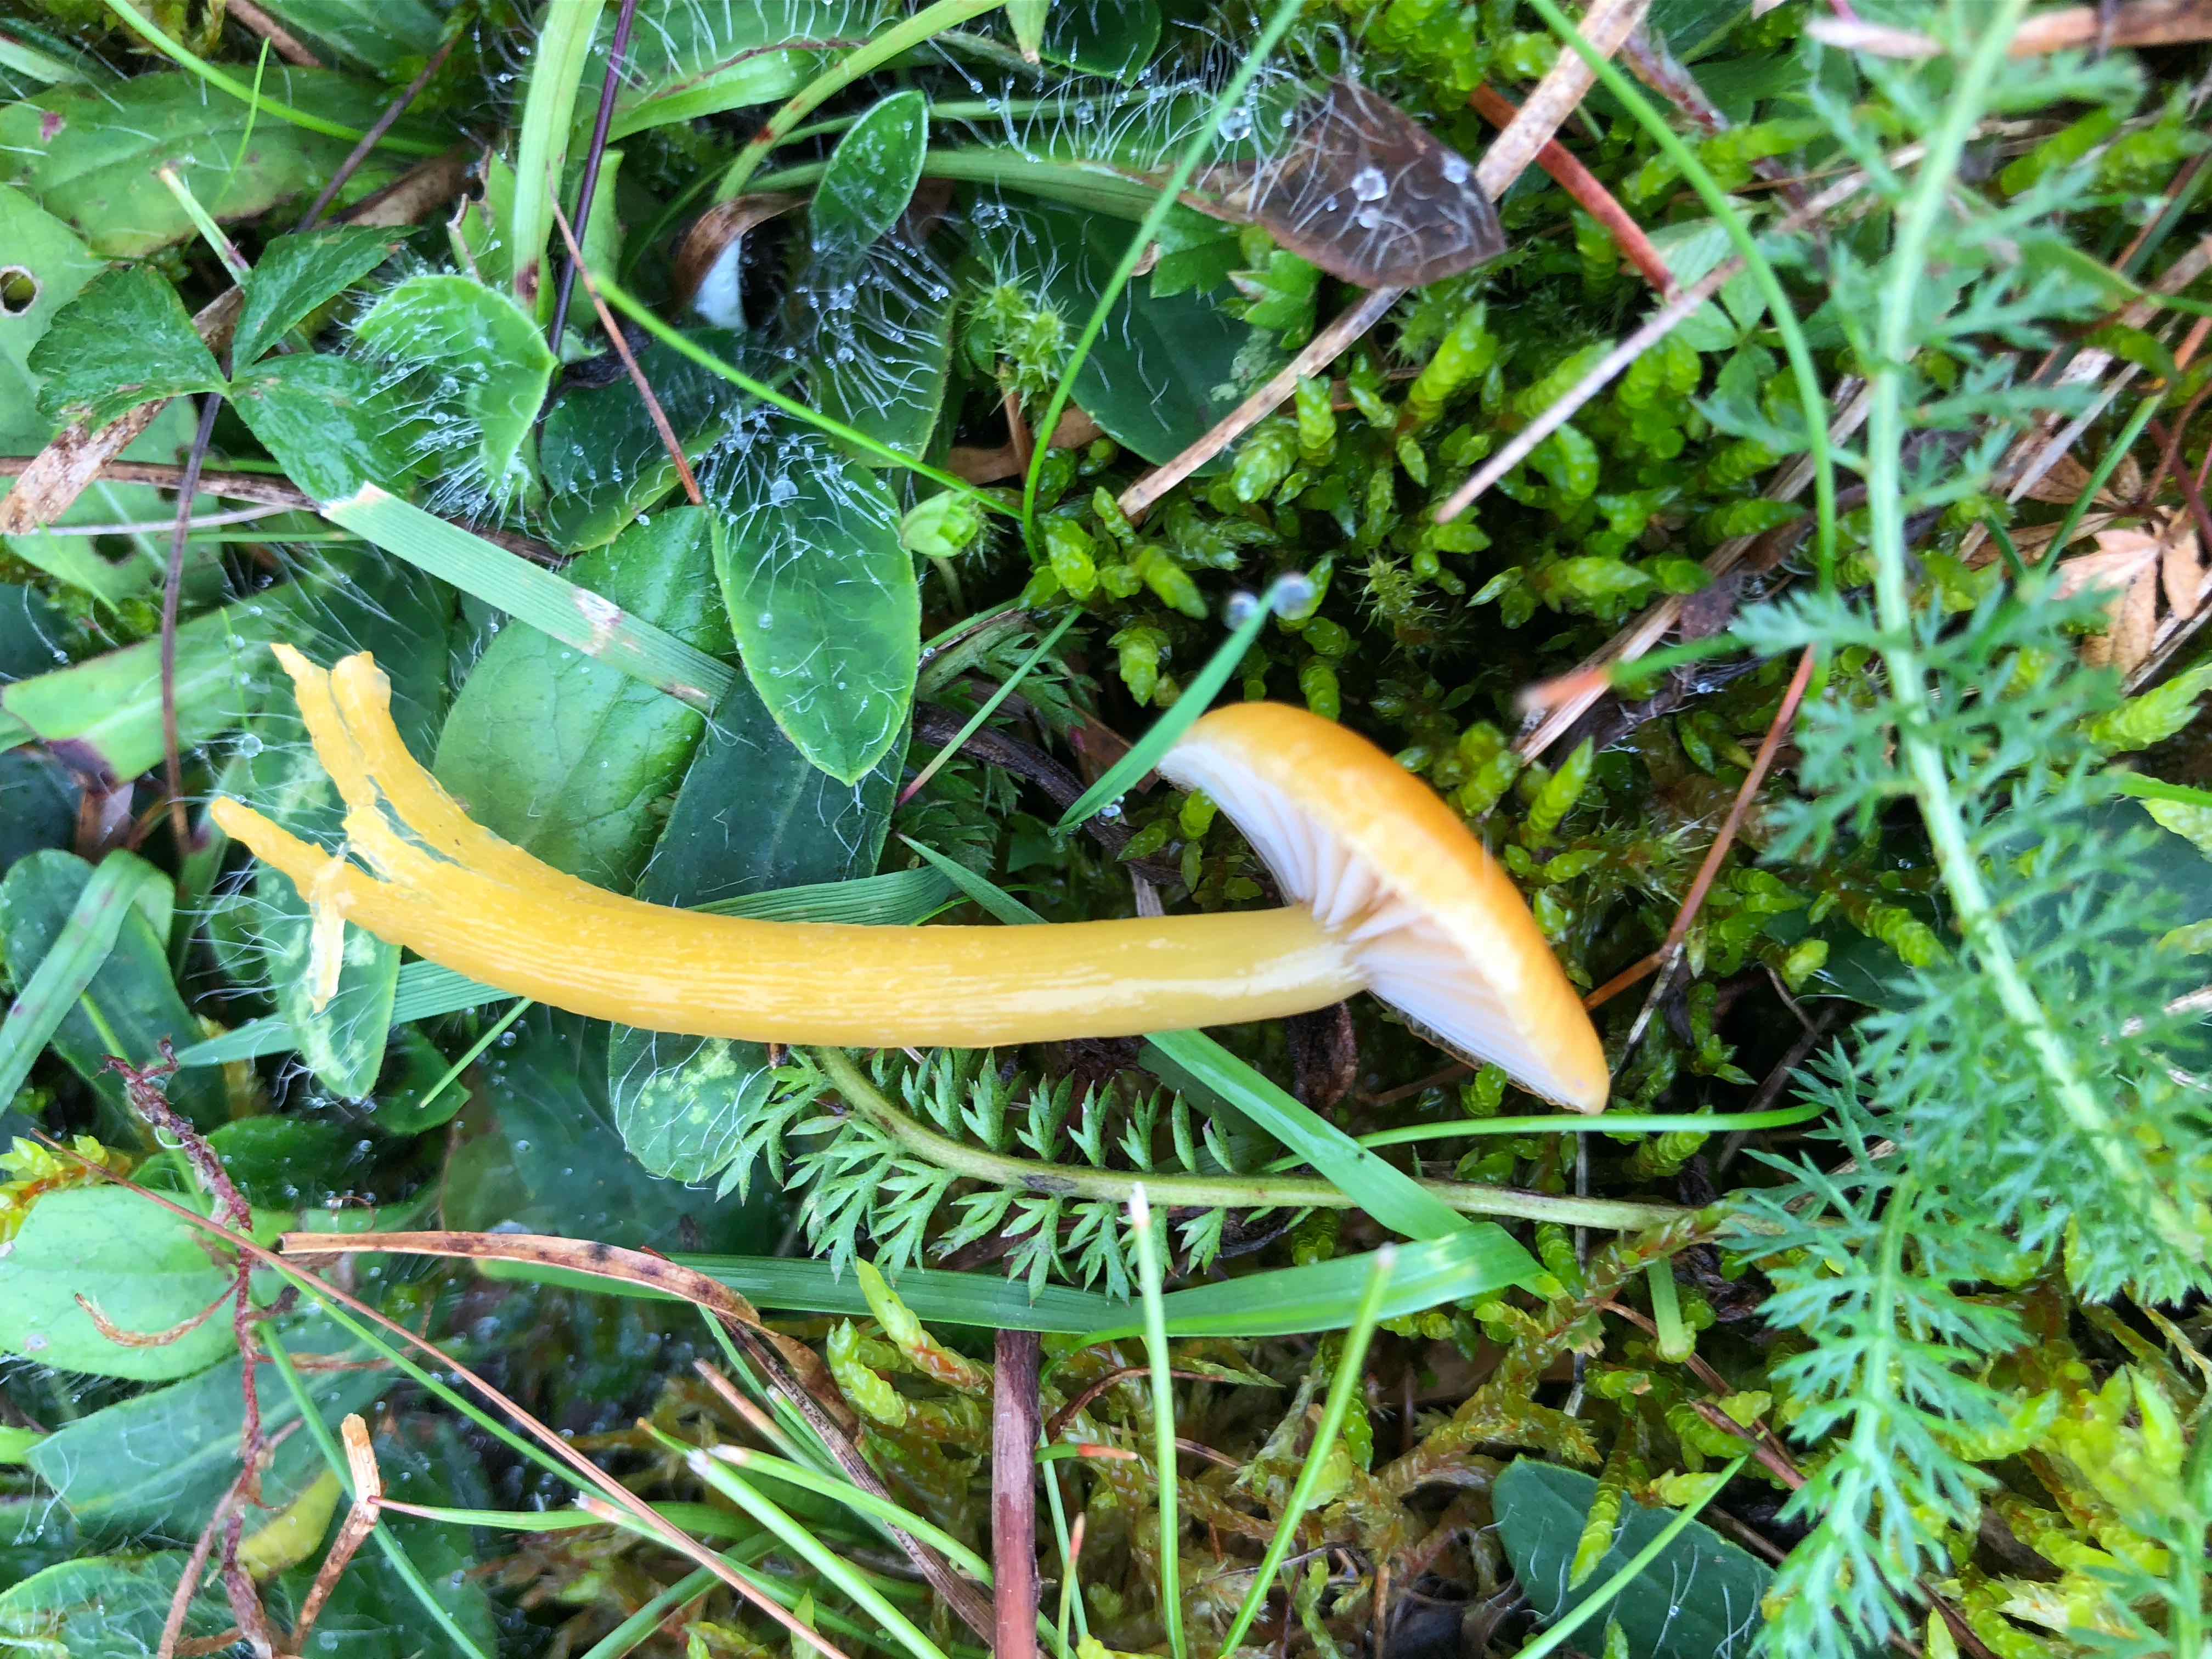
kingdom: Fungi
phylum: Basidiomycota
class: Agaricomycetes
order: Agaricales
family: Hygrophoraceae
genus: Gliophorus
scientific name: Gliophorus laetus
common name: brusk-vokshat
